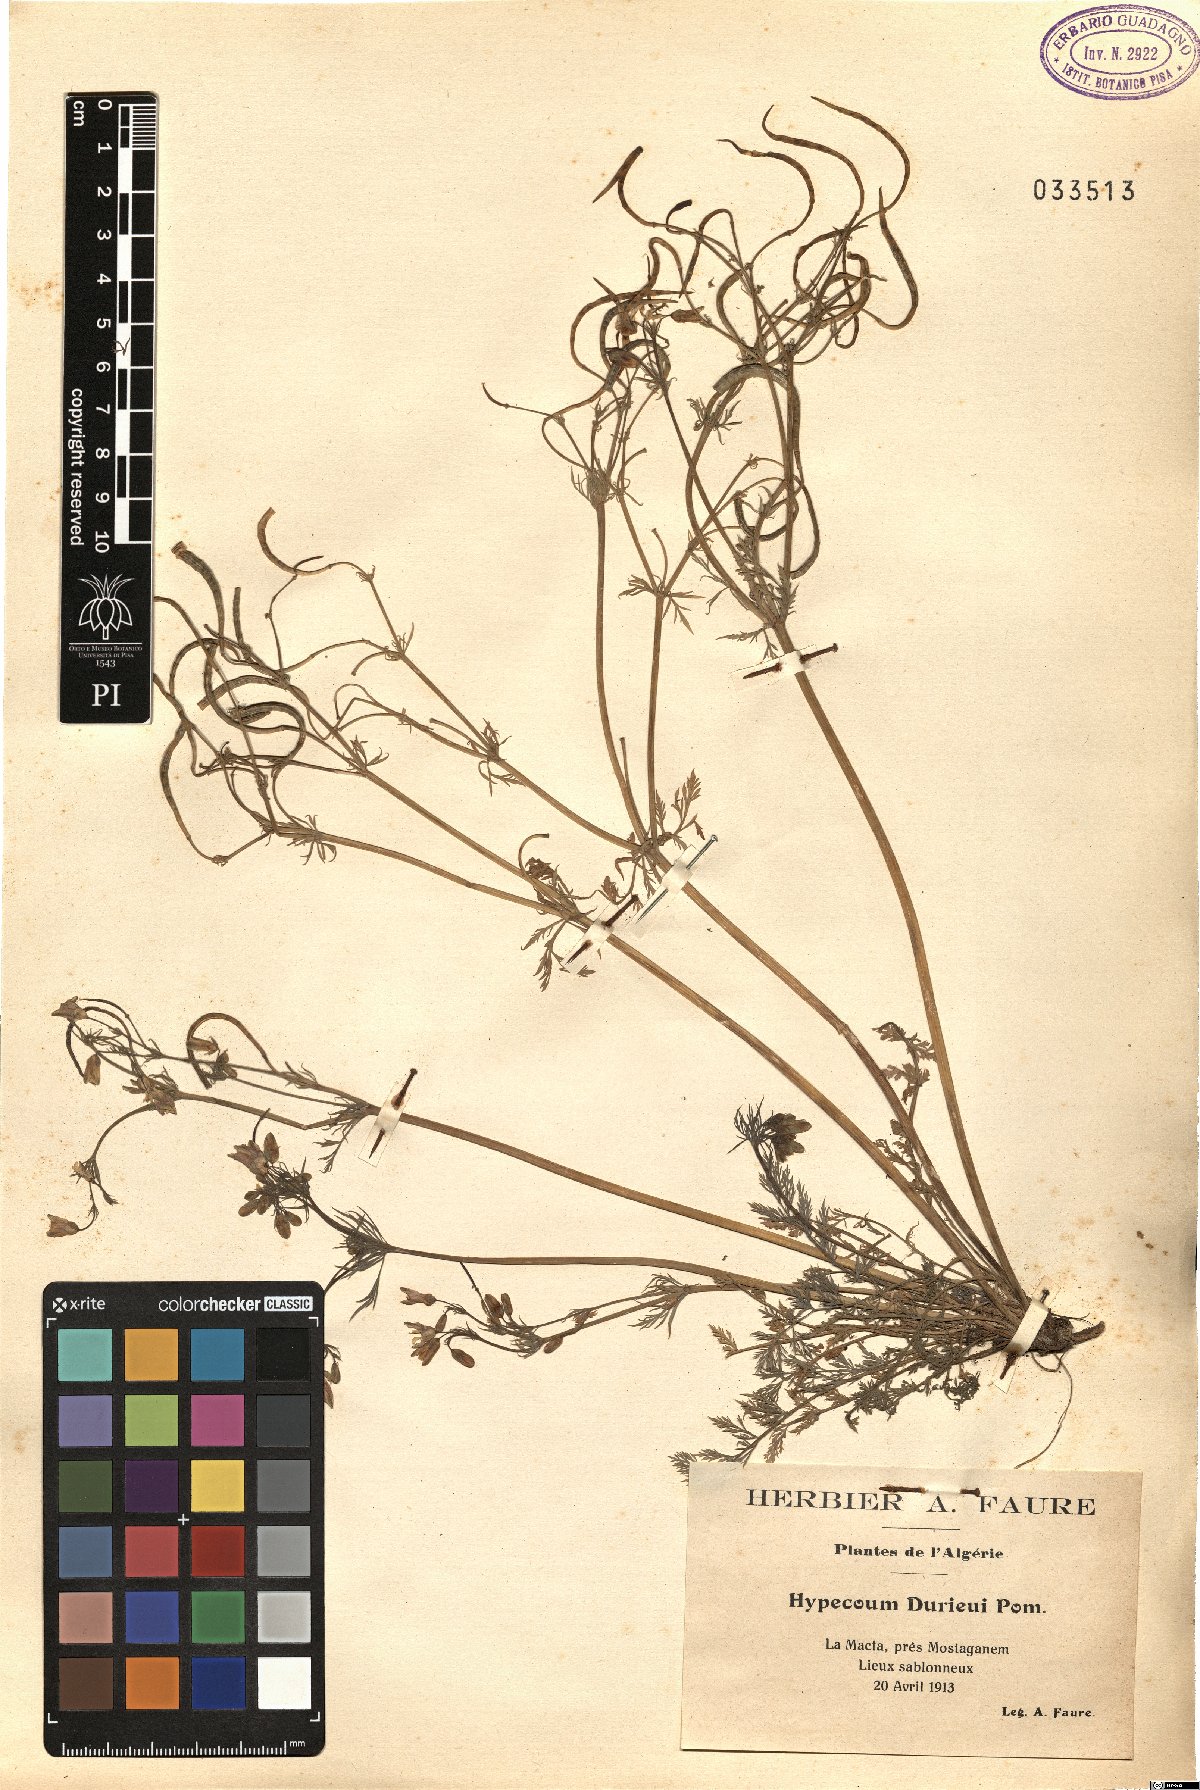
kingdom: Plantae
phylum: Tracheophyta
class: Magnoliopsida
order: Ranunculales
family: Papaveraceae
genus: Hypecoum
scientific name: Hypecoum duriaei
